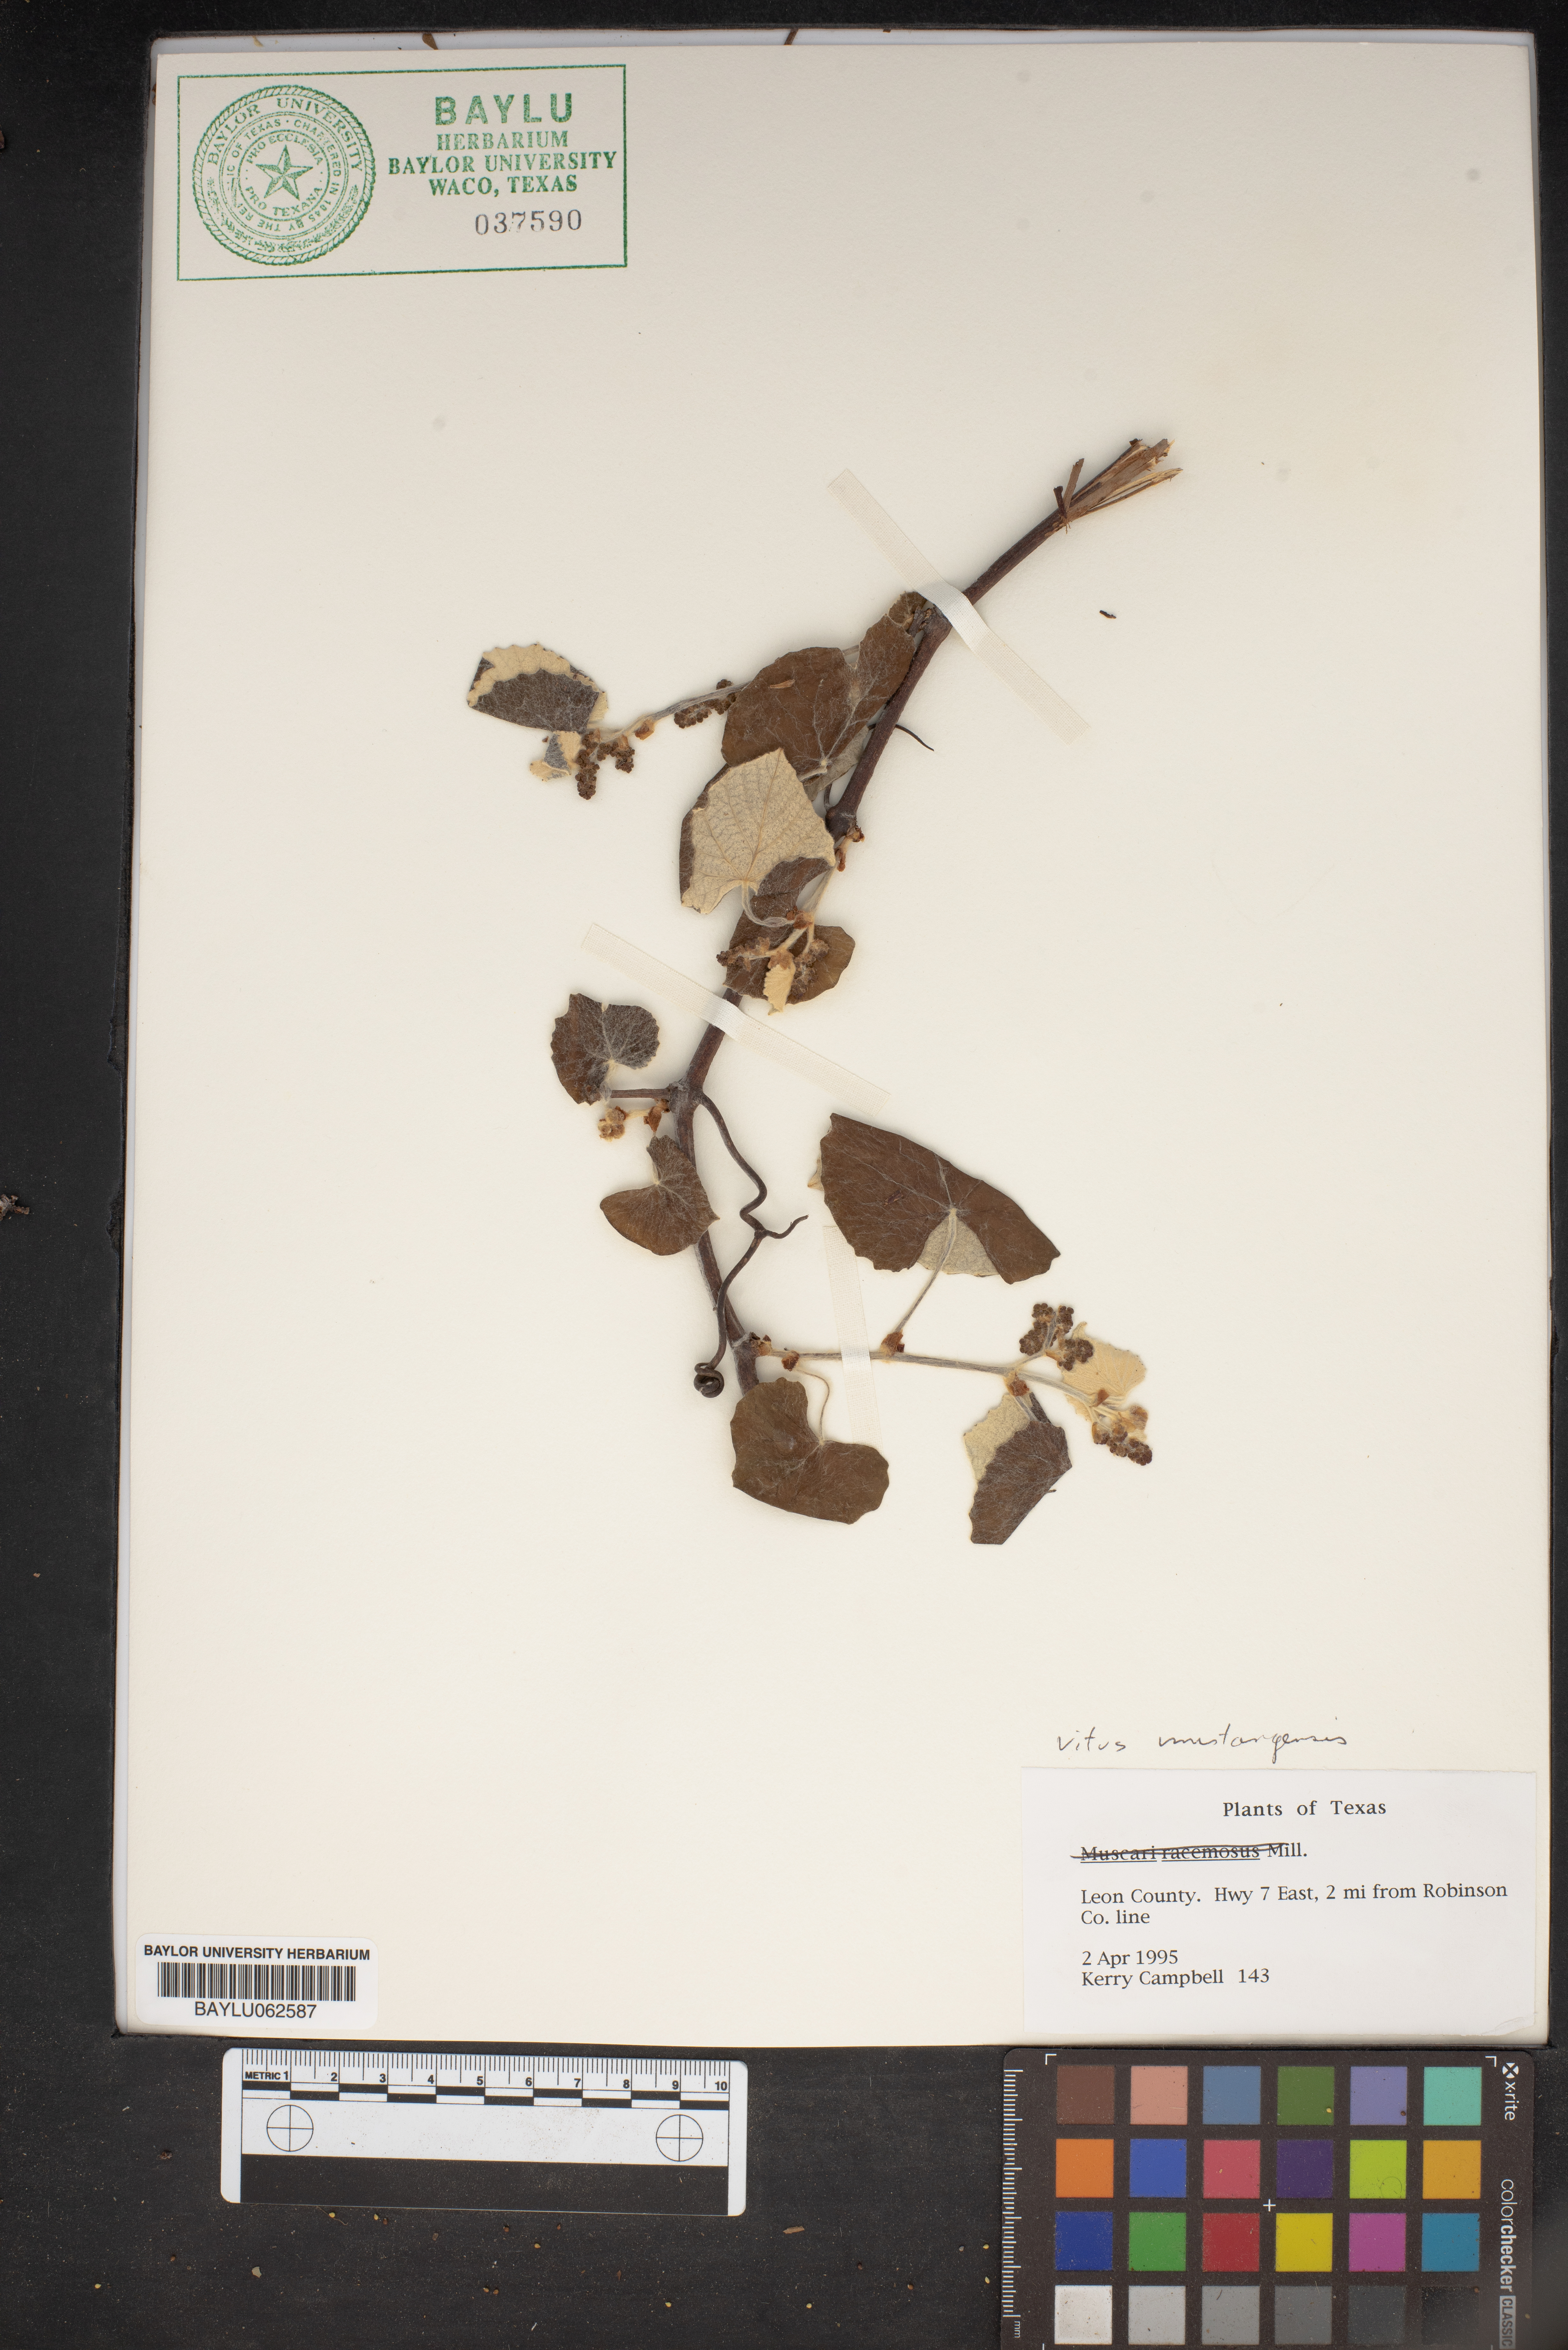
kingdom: Plantae
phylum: Tracheophyta
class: Magnoliopsida
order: Vitales
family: Vitaceae
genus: Vitis
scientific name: Vitis mustangensis
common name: Mustang grape
